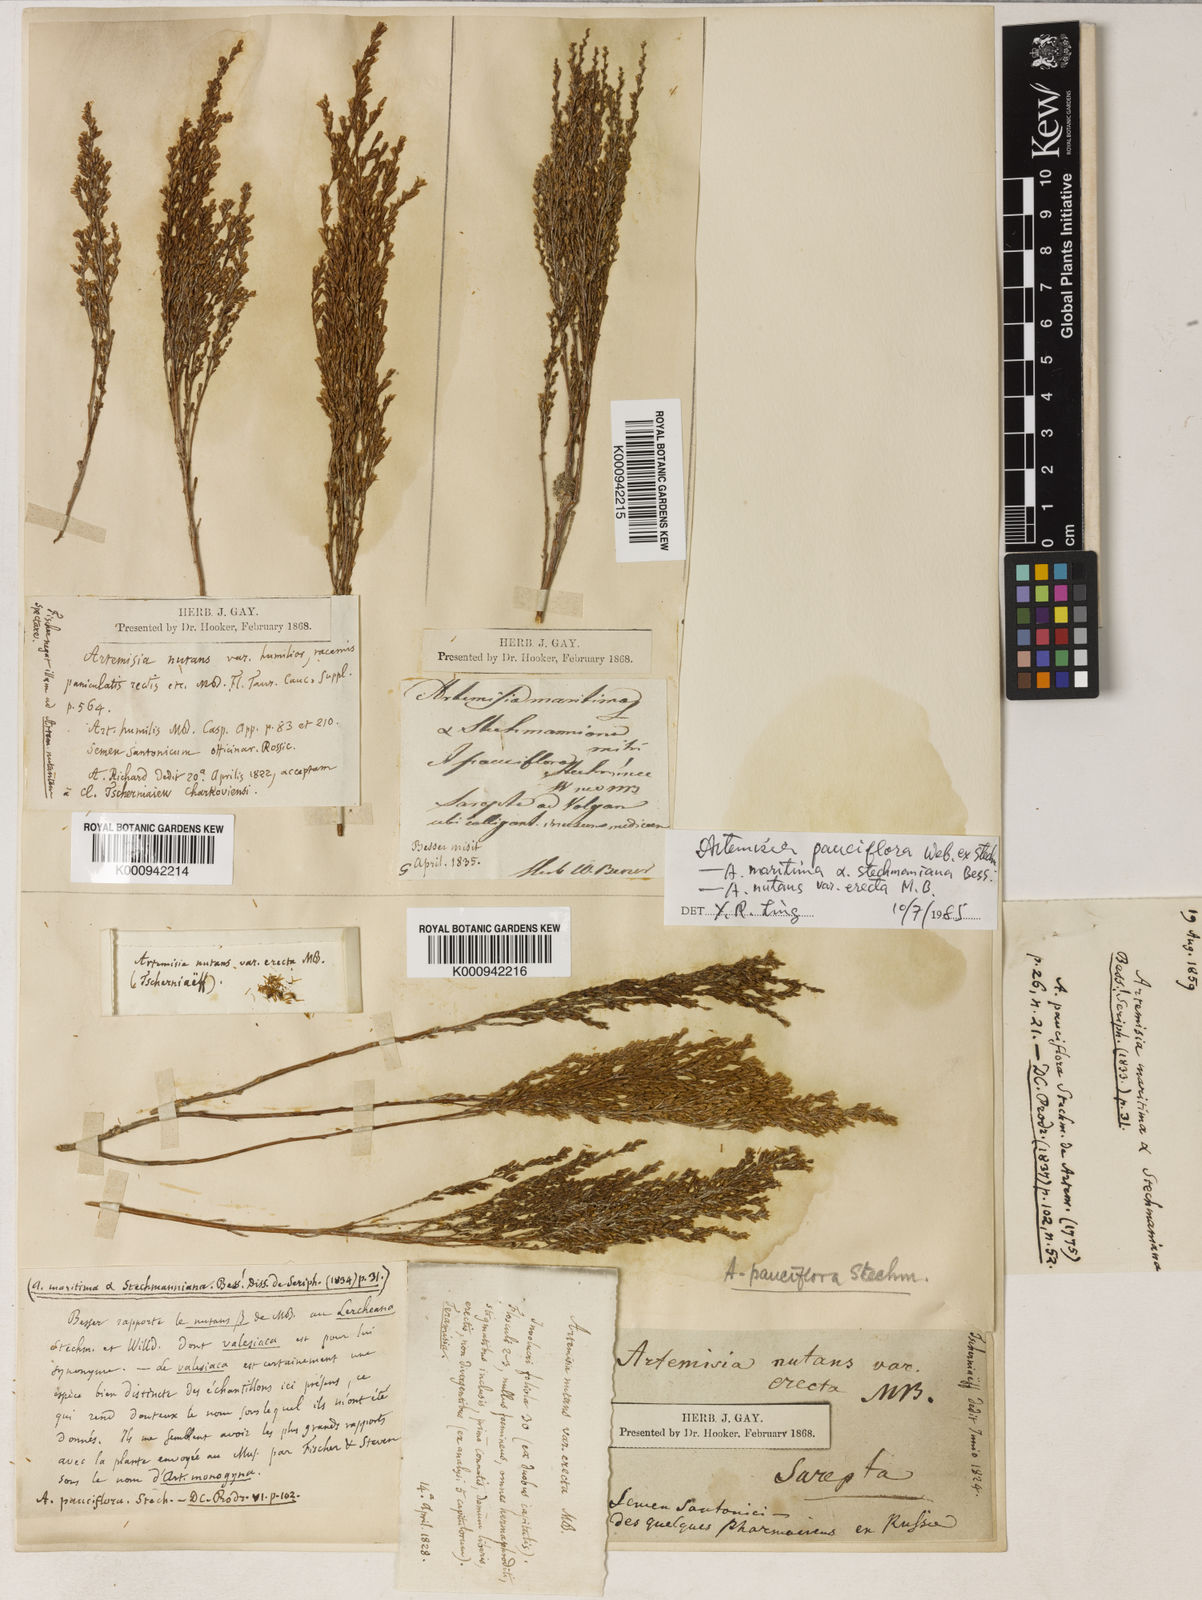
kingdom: Plantae
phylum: Tracheophyta
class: Magnoliopsida
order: Asterales
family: Asteraceae
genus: Artemisia
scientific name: Artemisia pauciflora
